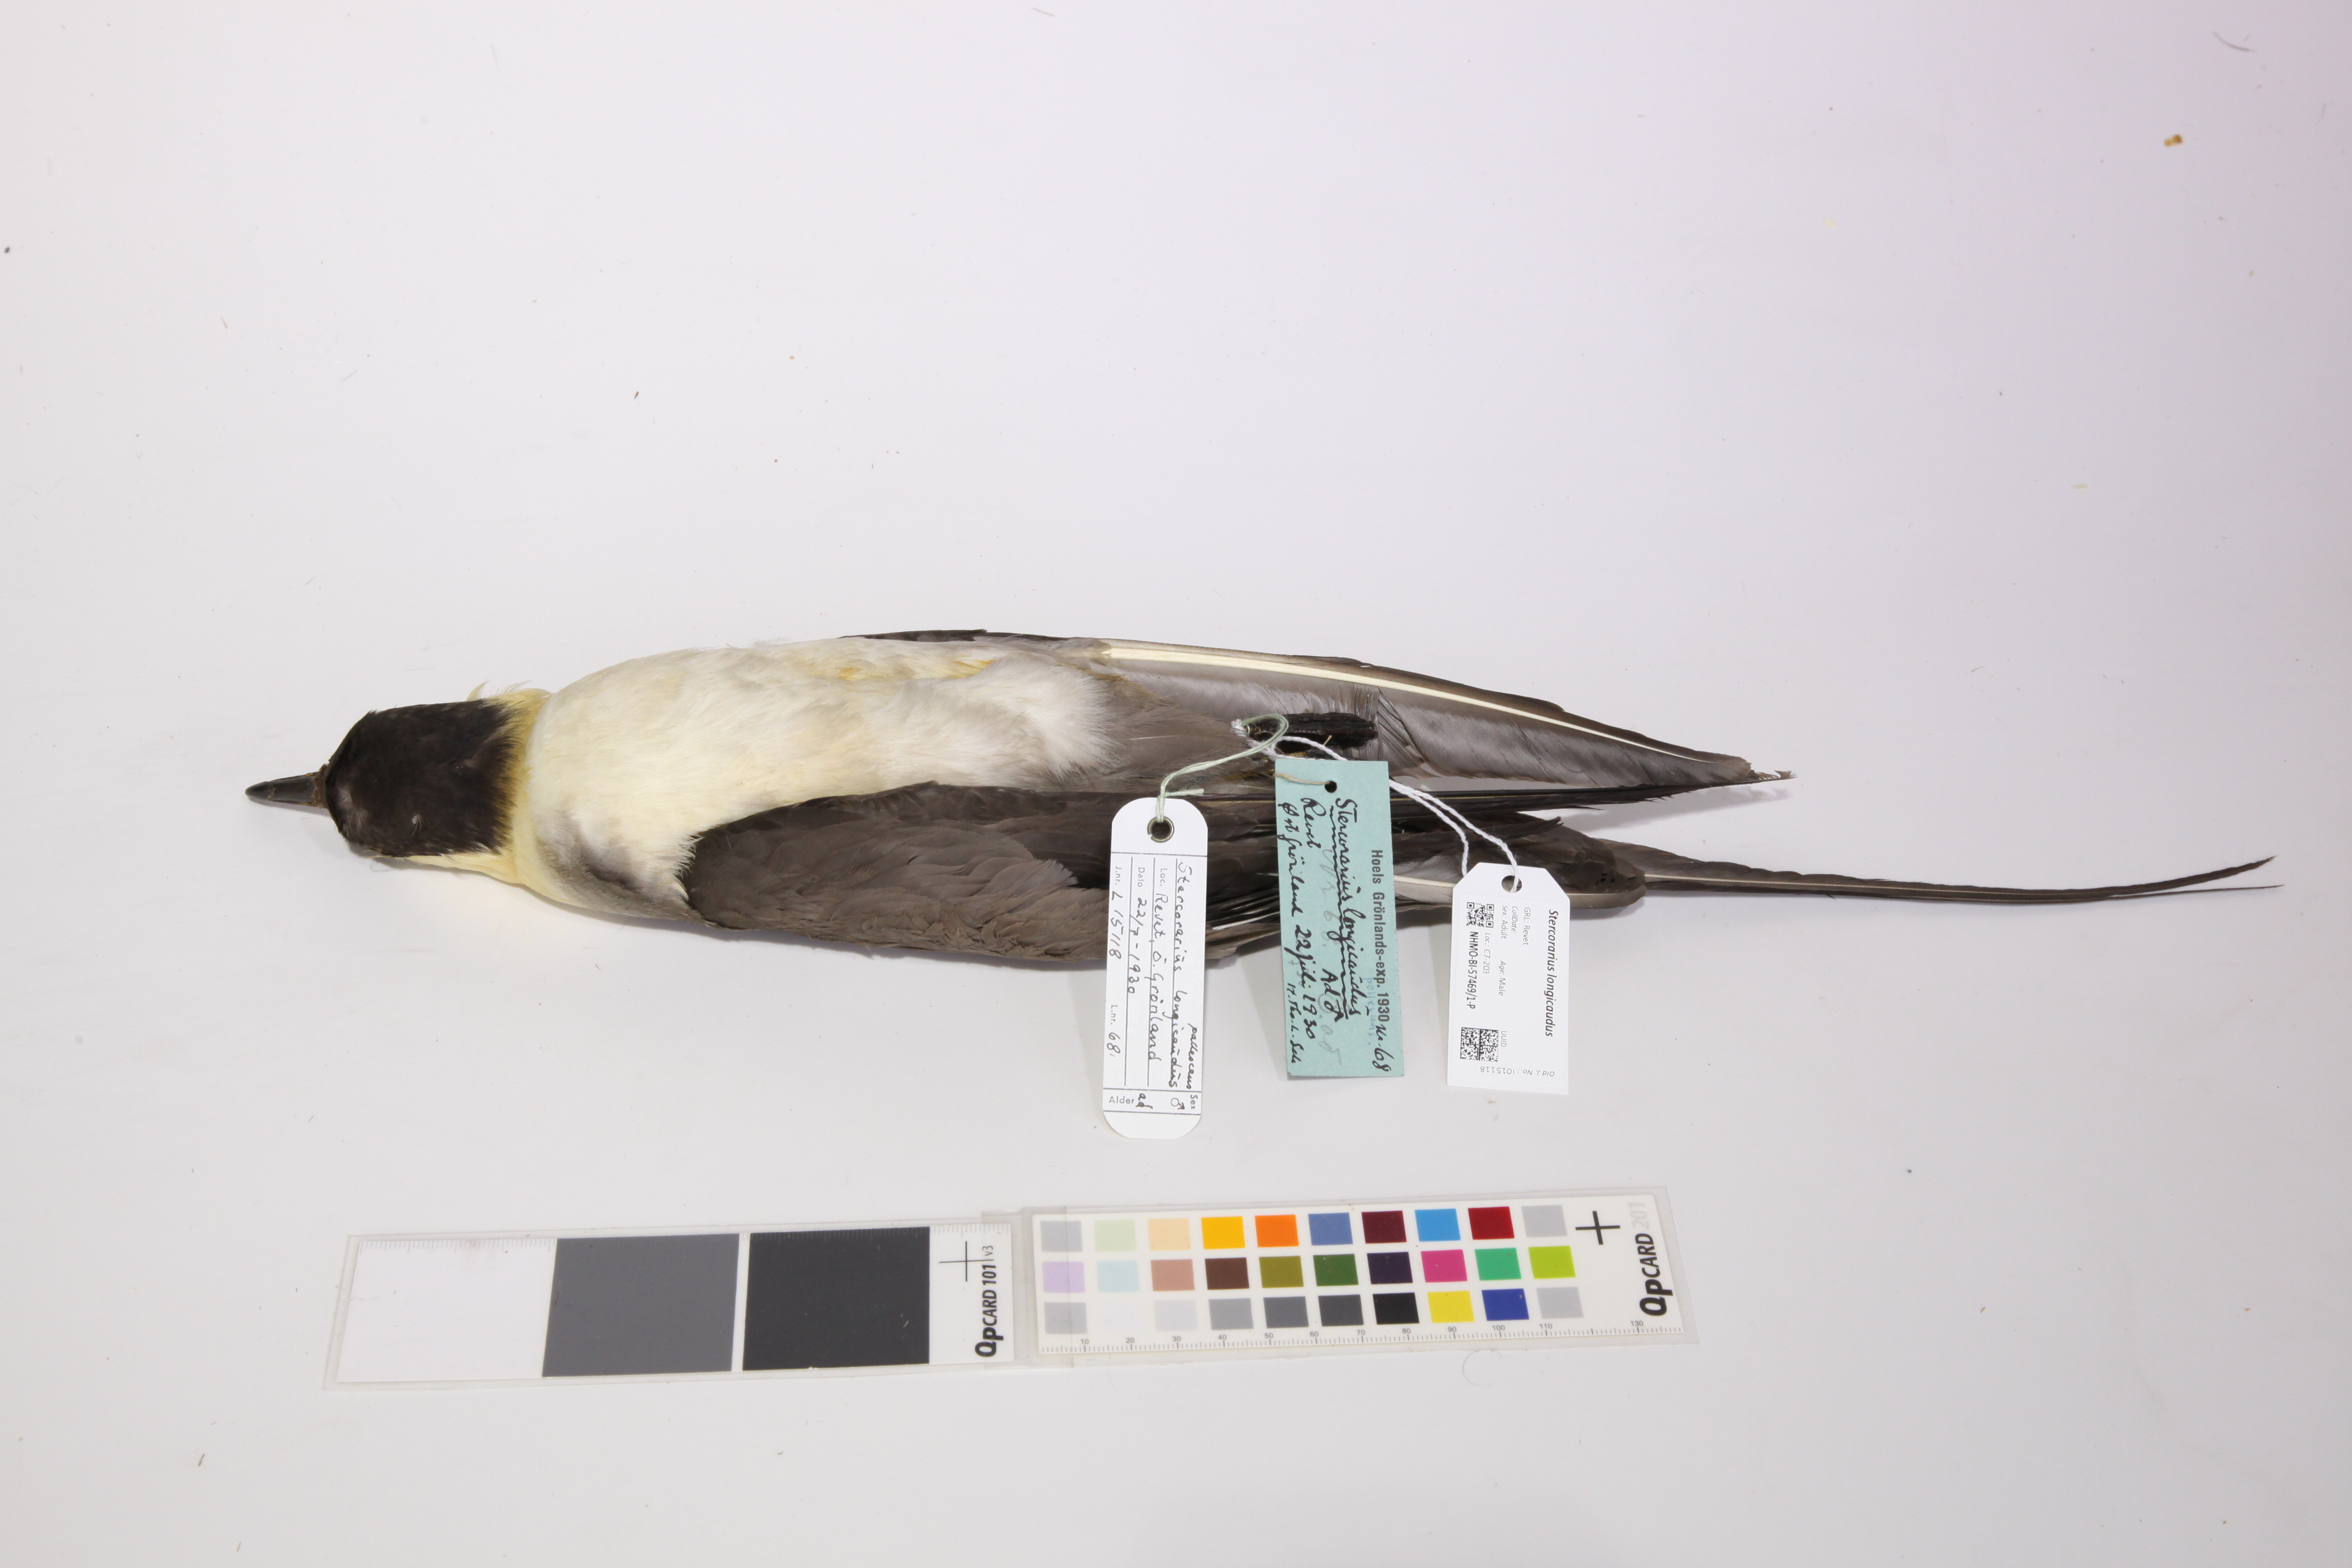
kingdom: Animalia
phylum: Chordata
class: Aves
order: Charadriiformes
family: Stercorariidae
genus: Stercorarius
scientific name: Stercorarius longicaudus
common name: Long-tailed jaeger
